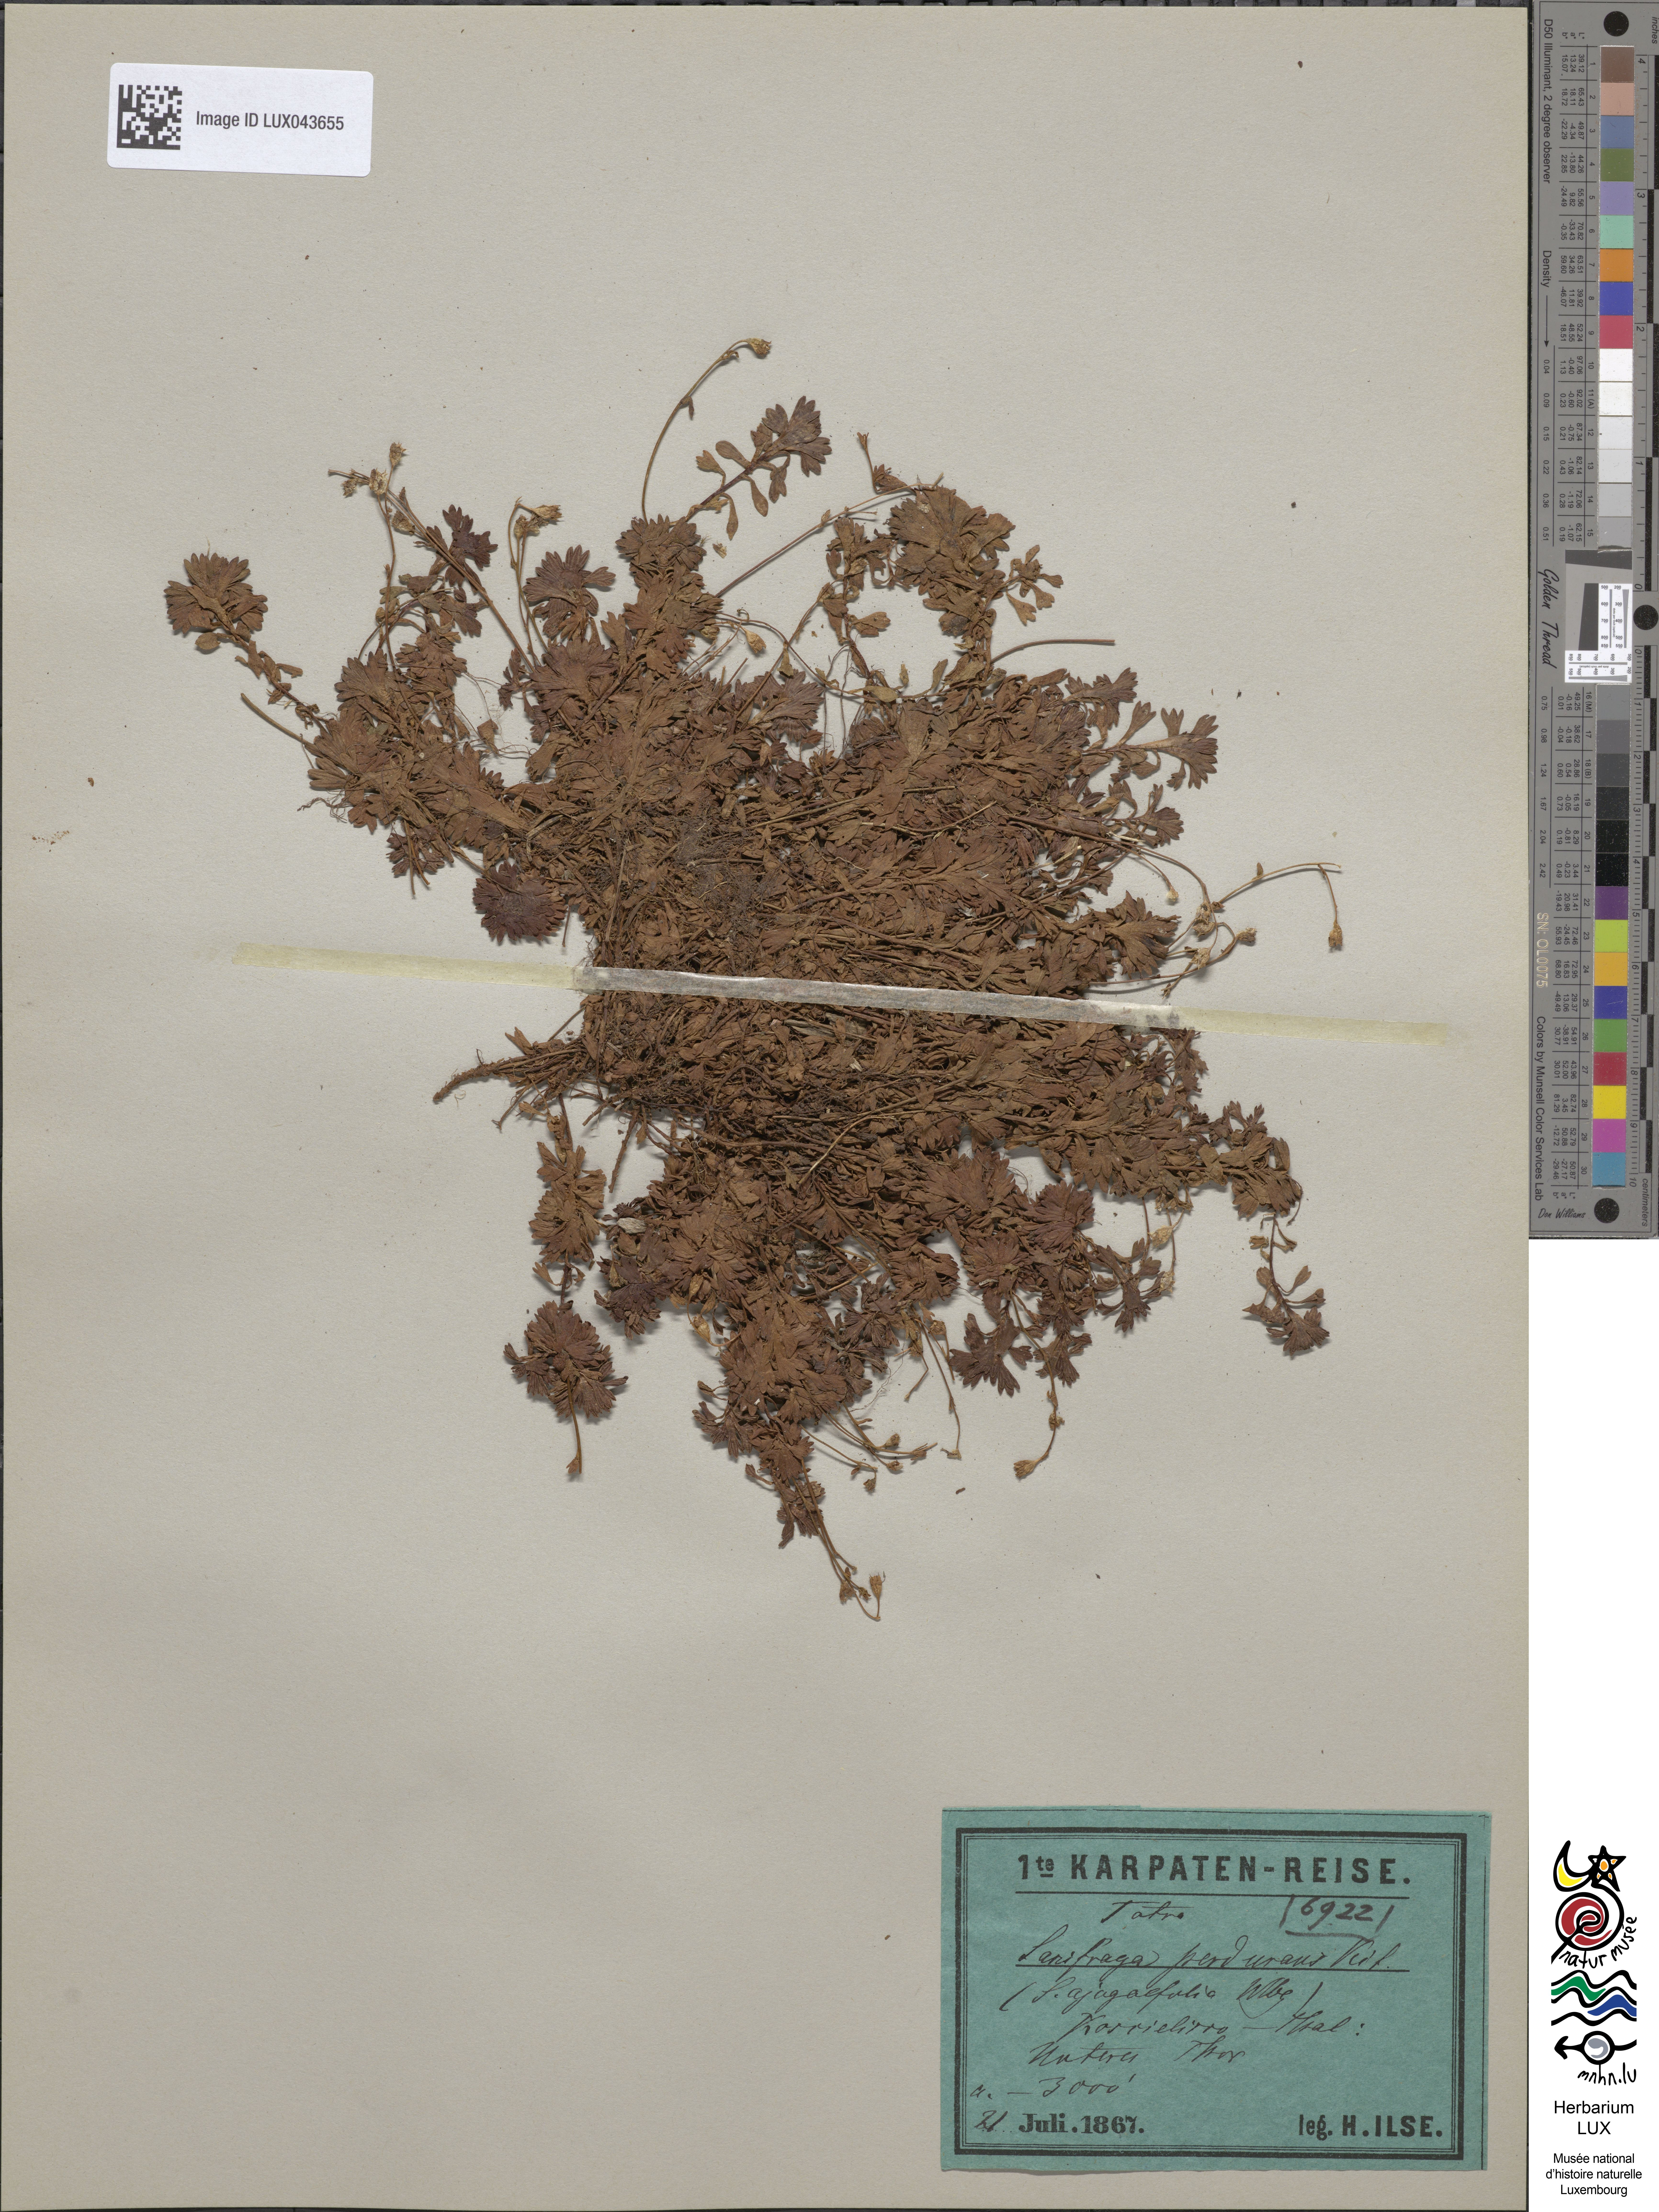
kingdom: Plantae
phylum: Tracheophyta
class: Magnoliopsida
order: Saxifragales
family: Saxifragaceae
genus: Saxifraga
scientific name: Saxifraga pedemontana
